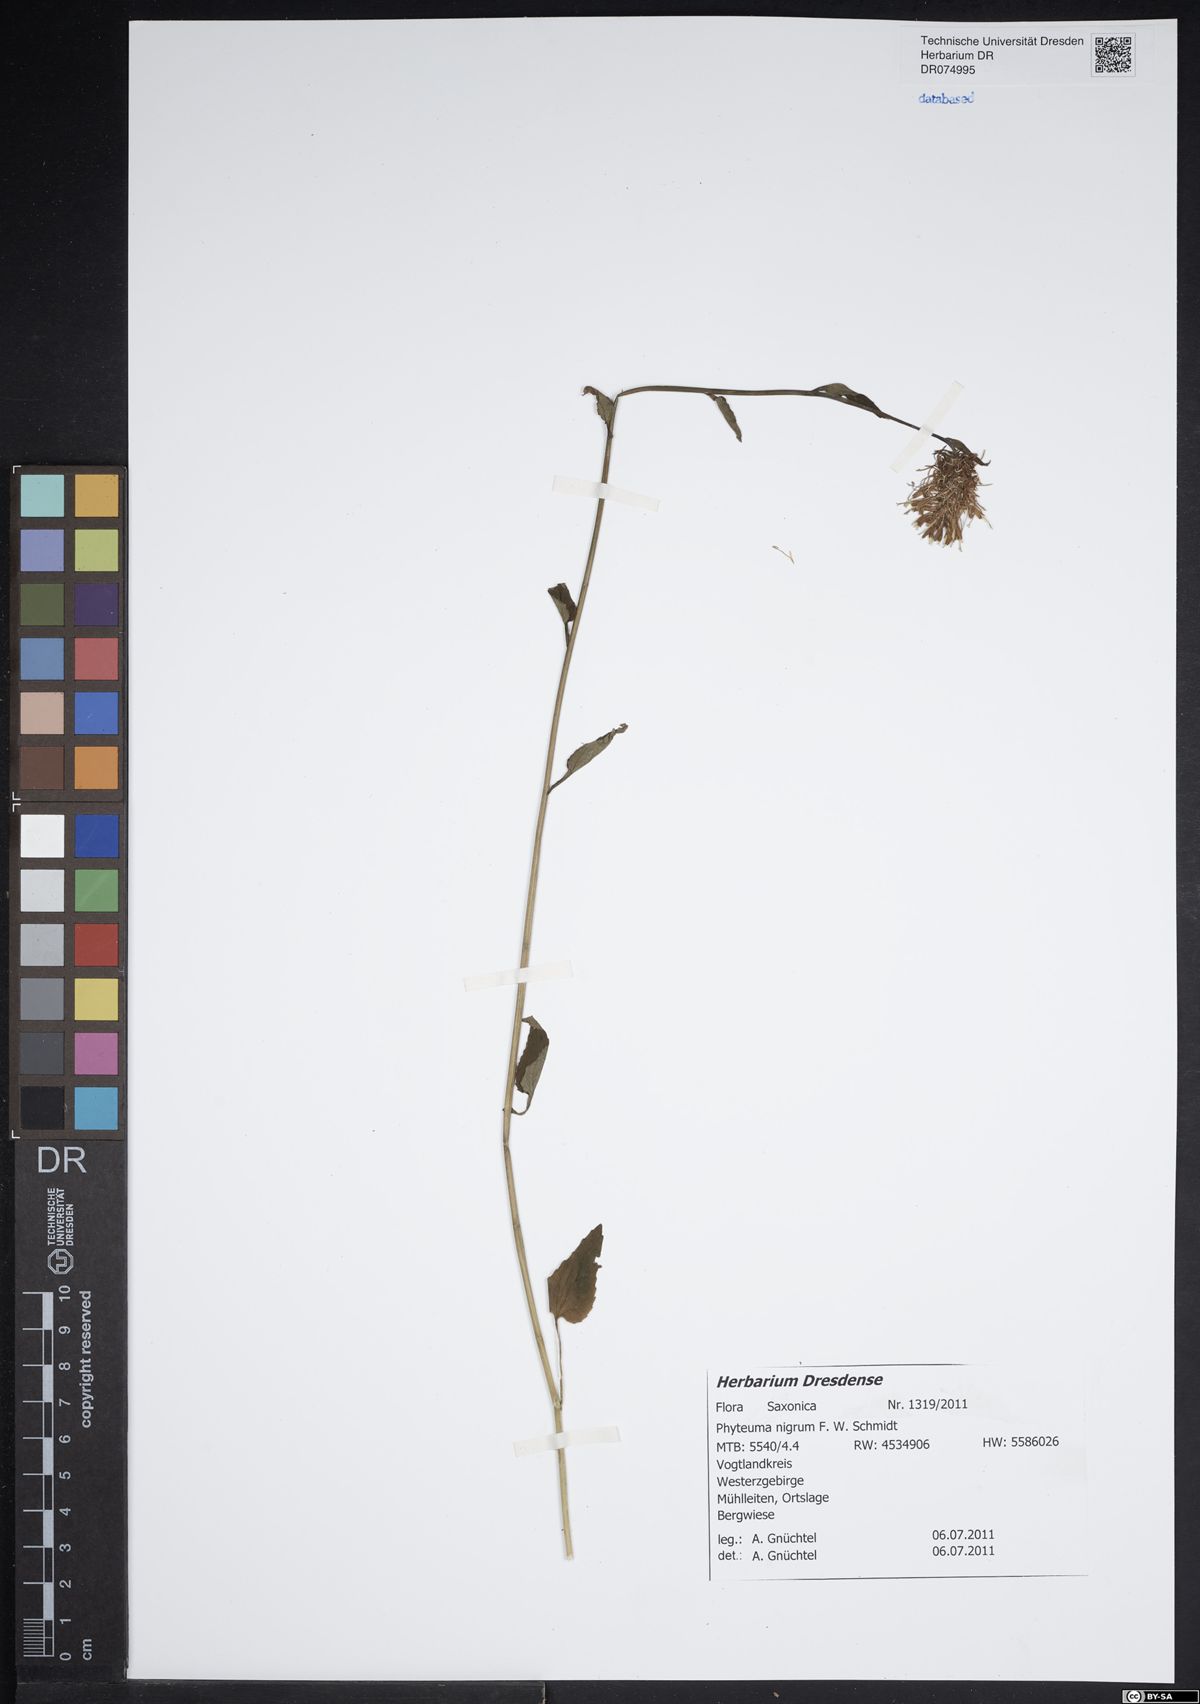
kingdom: Plantae
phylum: Tracheophyta
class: Magnoliopsida
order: Asterales
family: Campanulaceae
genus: Phyteuma
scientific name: Phyteuma nigrum
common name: Black rampion
